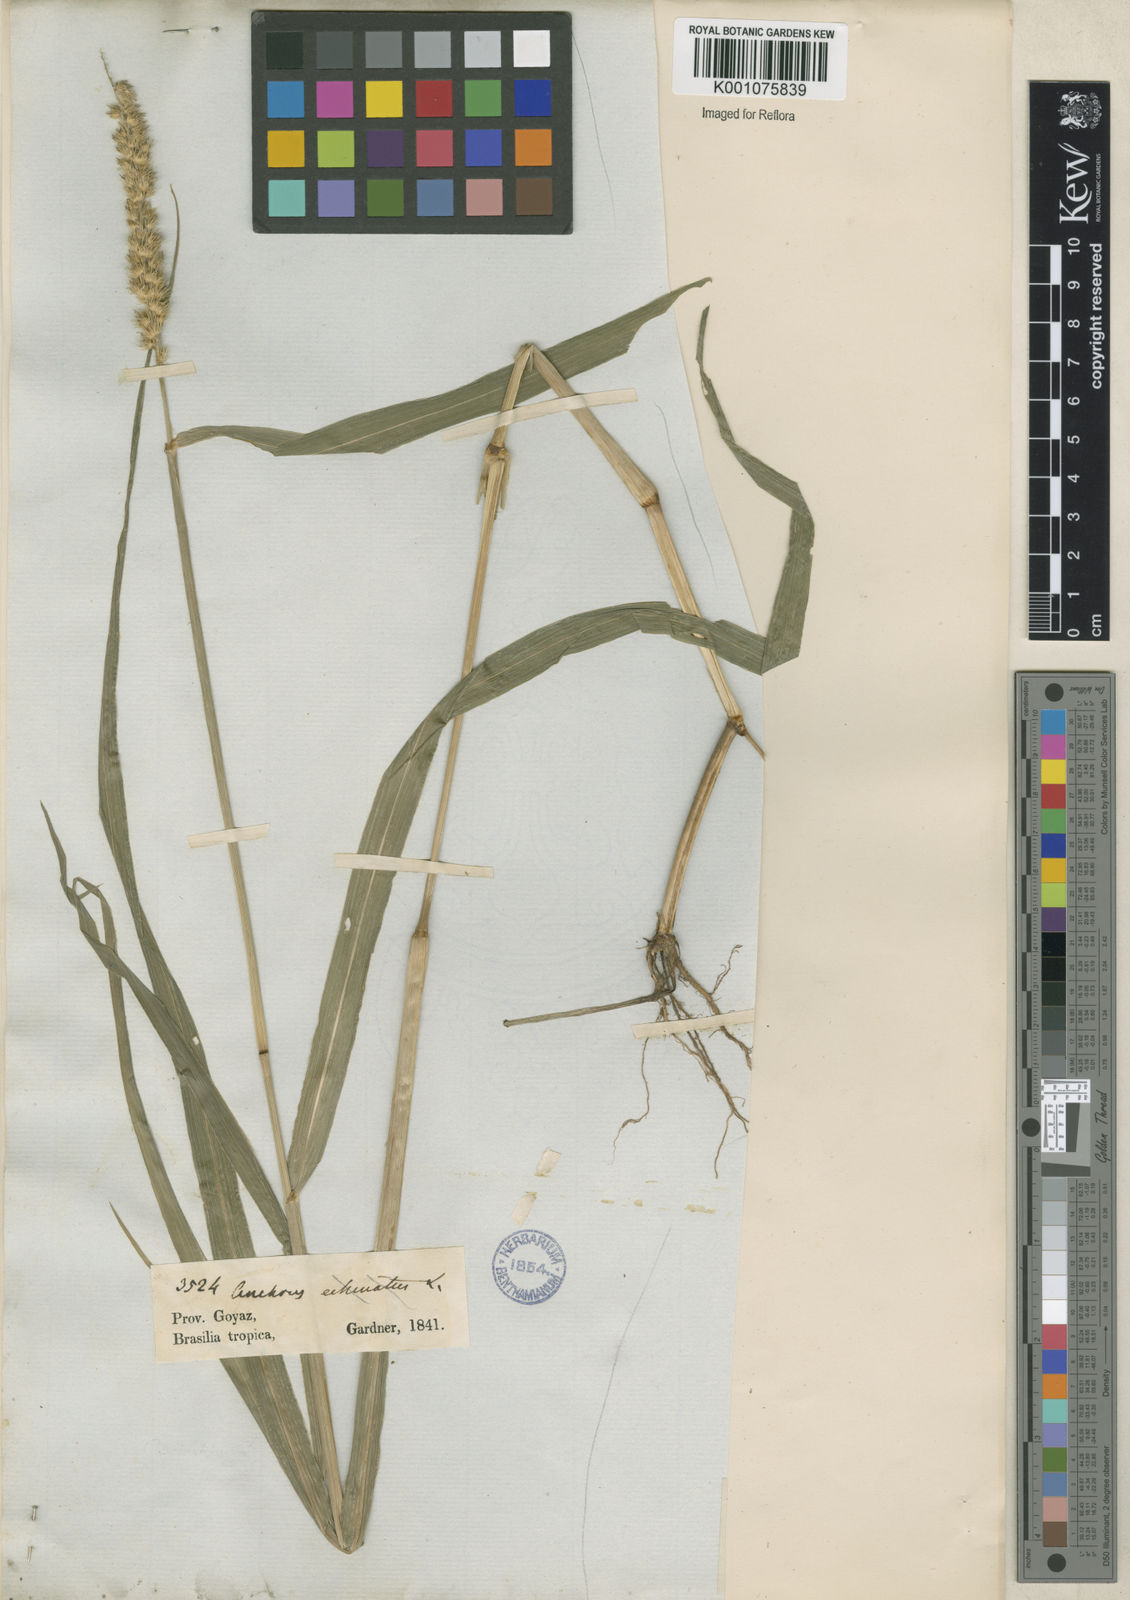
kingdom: Plantae
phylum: Tracheophyta
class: Liliopsida
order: Poales
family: Poaceae
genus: Cenchrus
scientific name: Cenchrus brownii
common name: Slim-bristle sandbur
